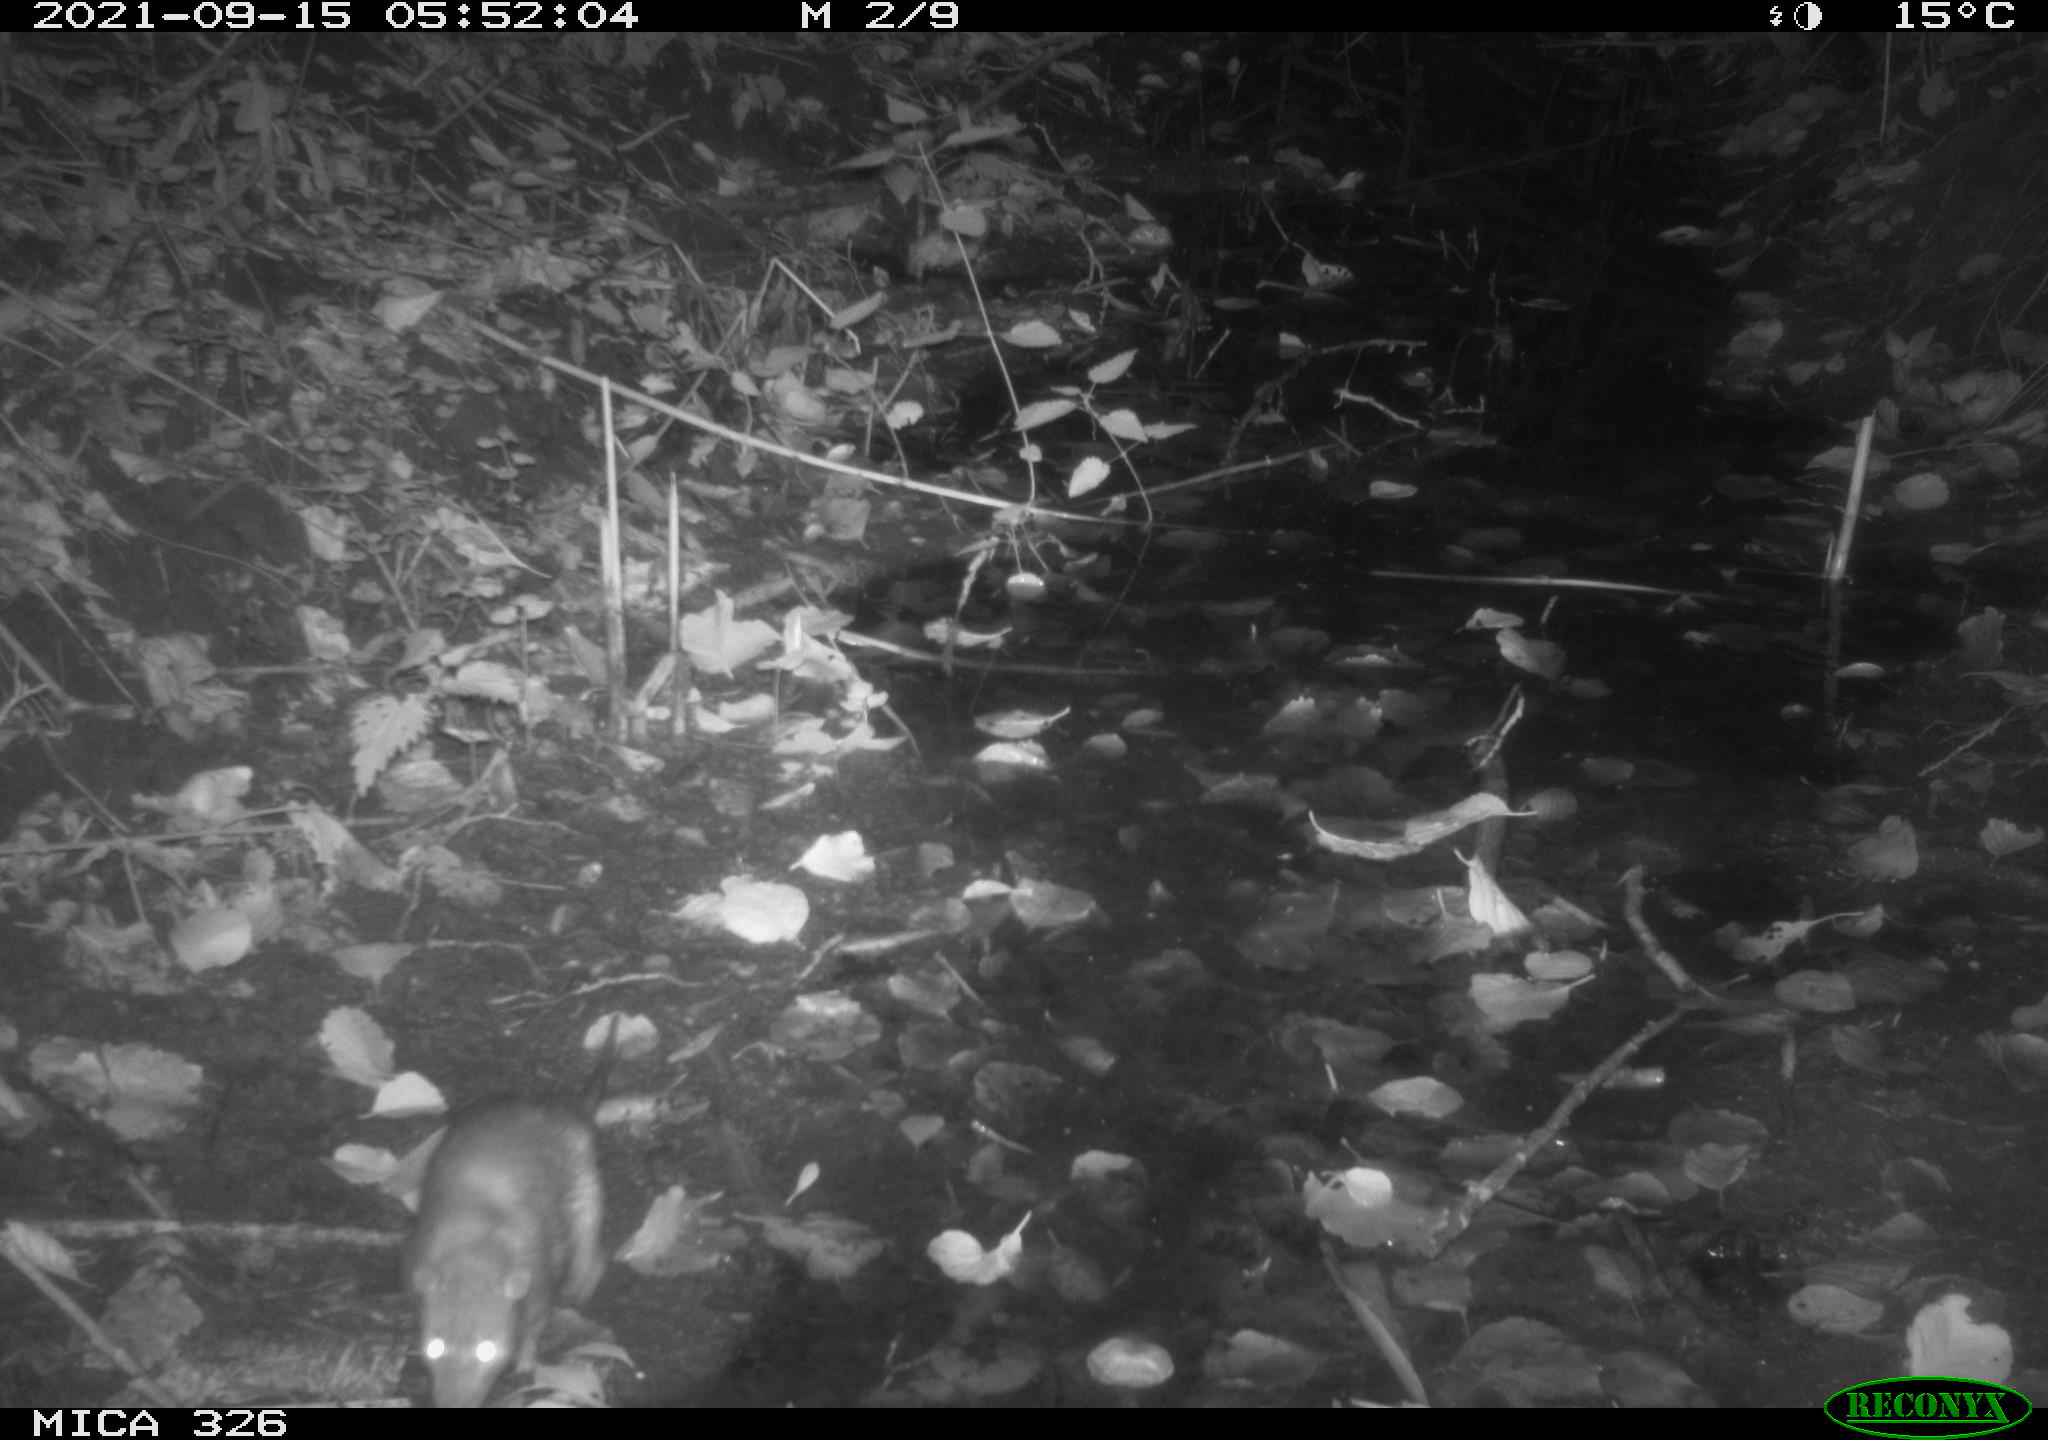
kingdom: Animalia
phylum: Chordata
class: Mammalia
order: Rodentia
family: Muridae
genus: Rattus
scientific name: Rattus norvegicus
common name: Brown rat
